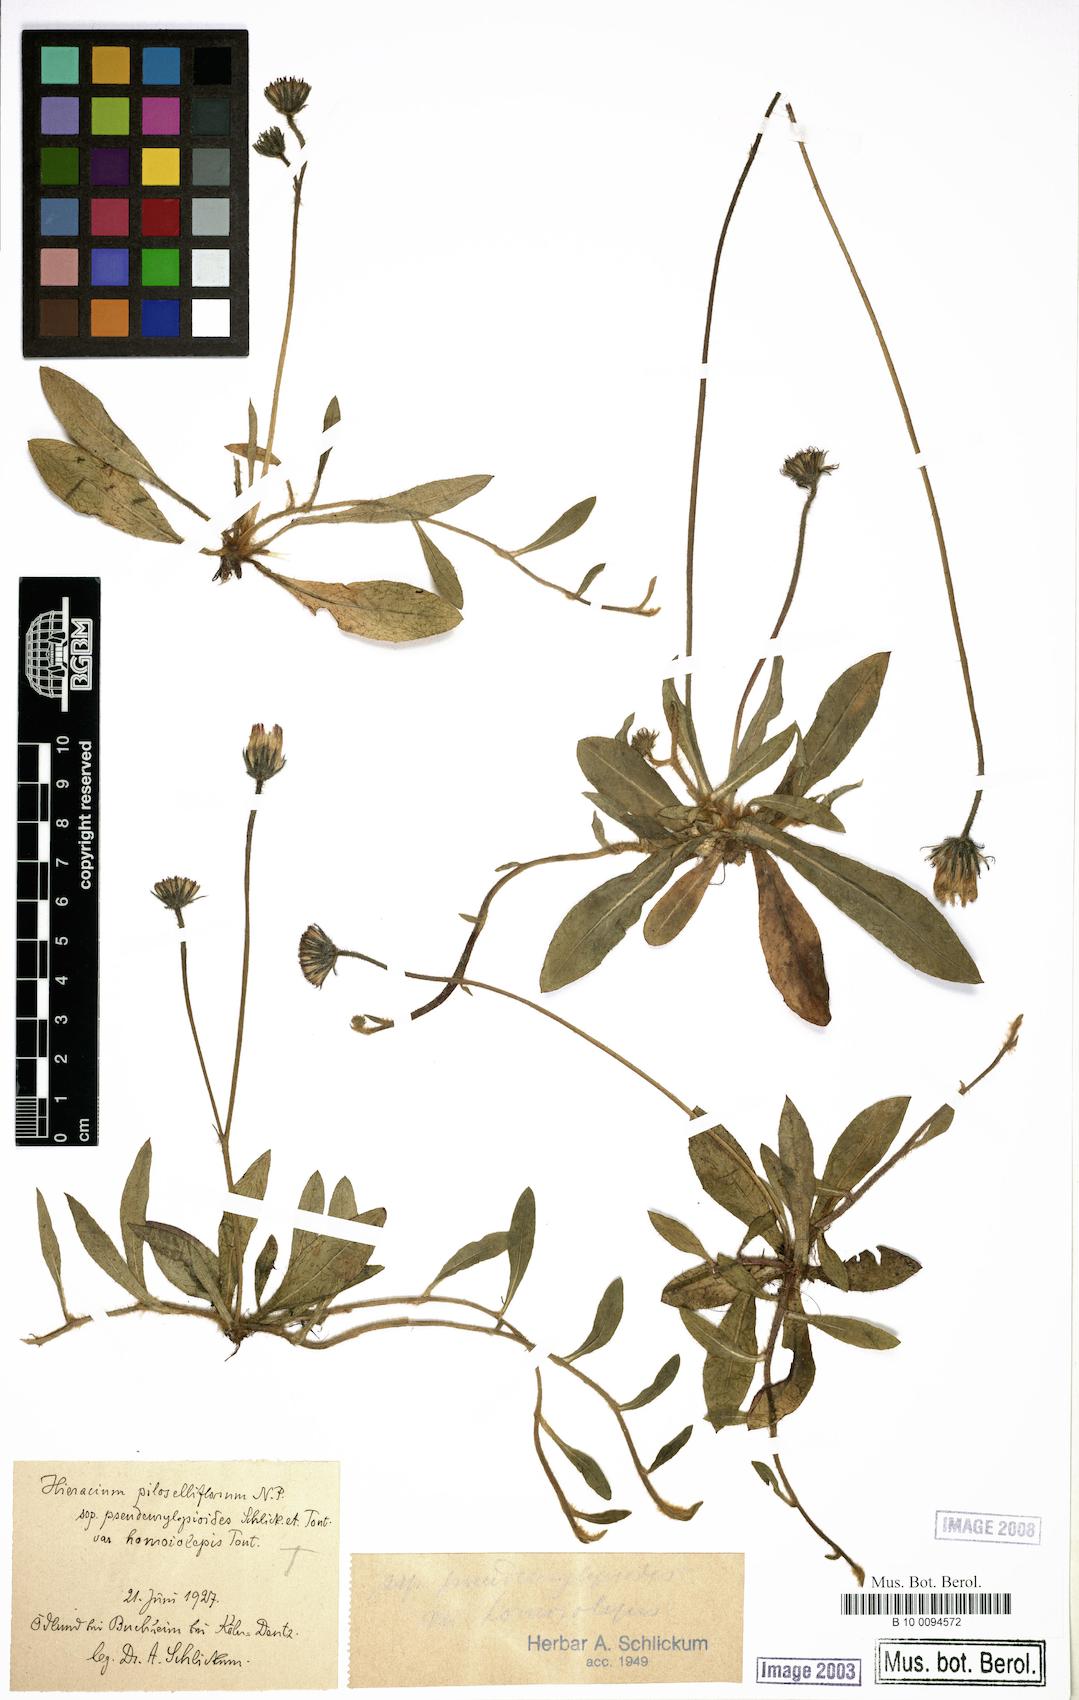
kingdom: Plantae
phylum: Tracheophyta
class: Magnoliopsida
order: Asterales
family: Asteraceae
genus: Pilosella
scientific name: Pilosella piloselliflora
